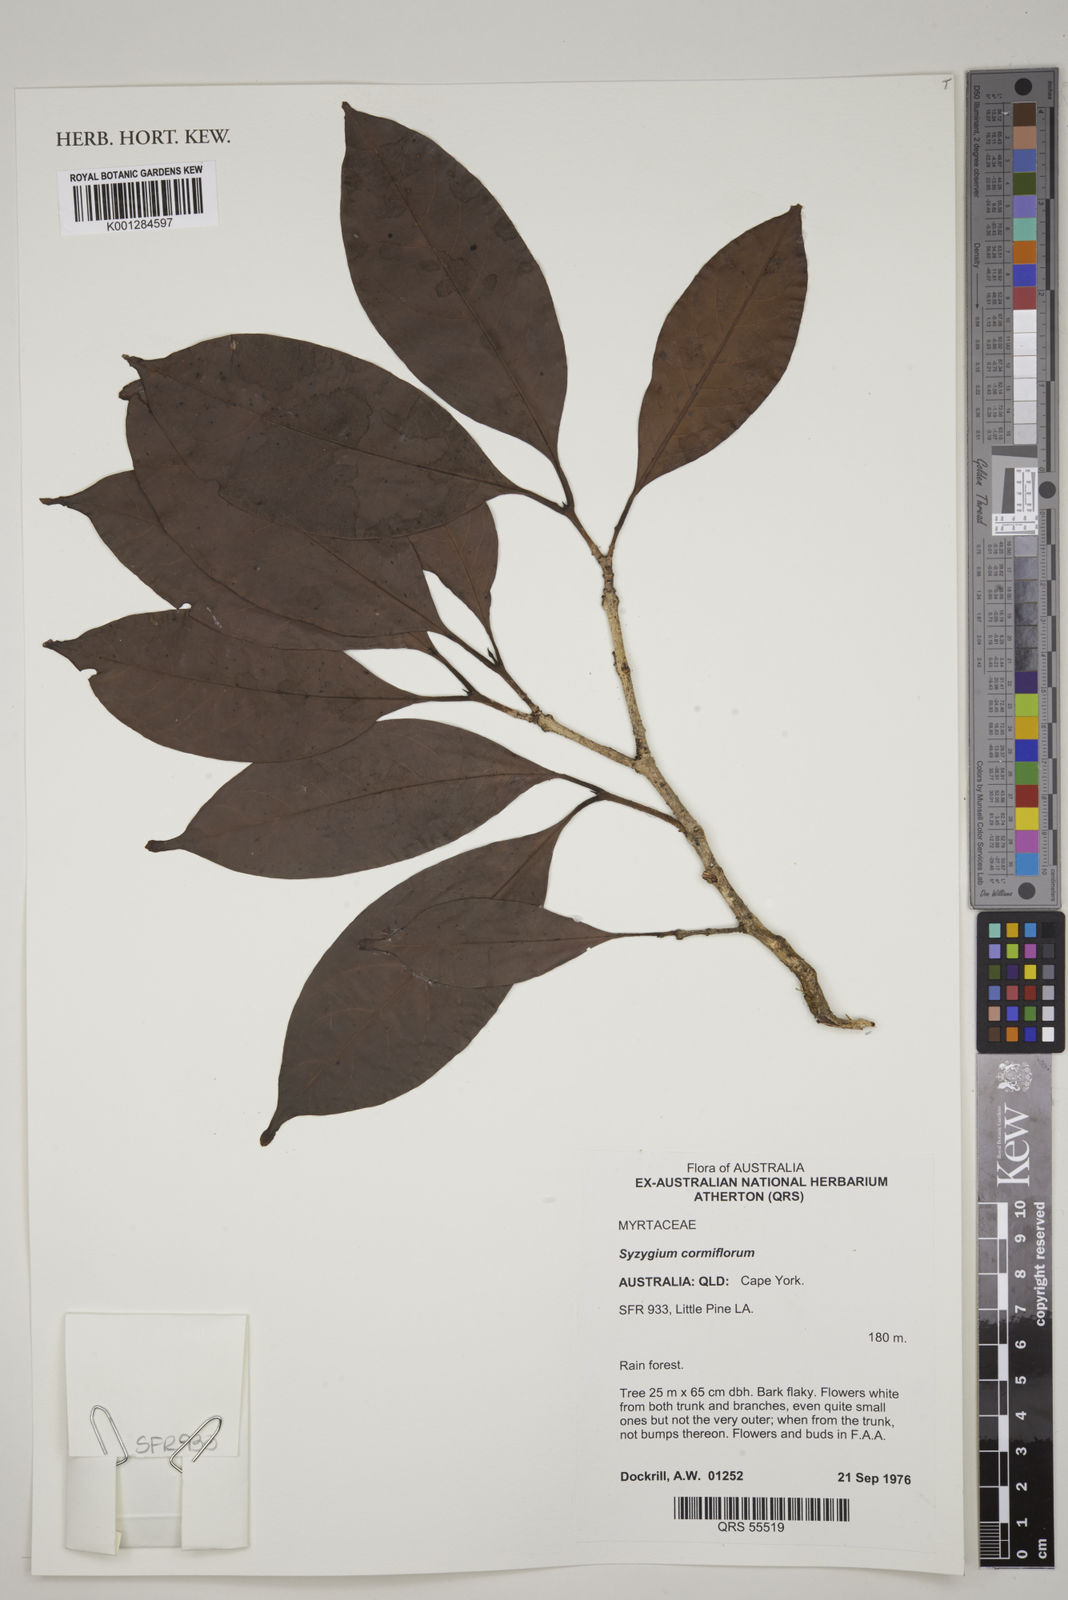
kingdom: Plantae
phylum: Tracheophyta
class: Magnoliopsida
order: Myrtales
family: Myrtaceae
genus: Syzygium
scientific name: Syzygium cormiflorum
